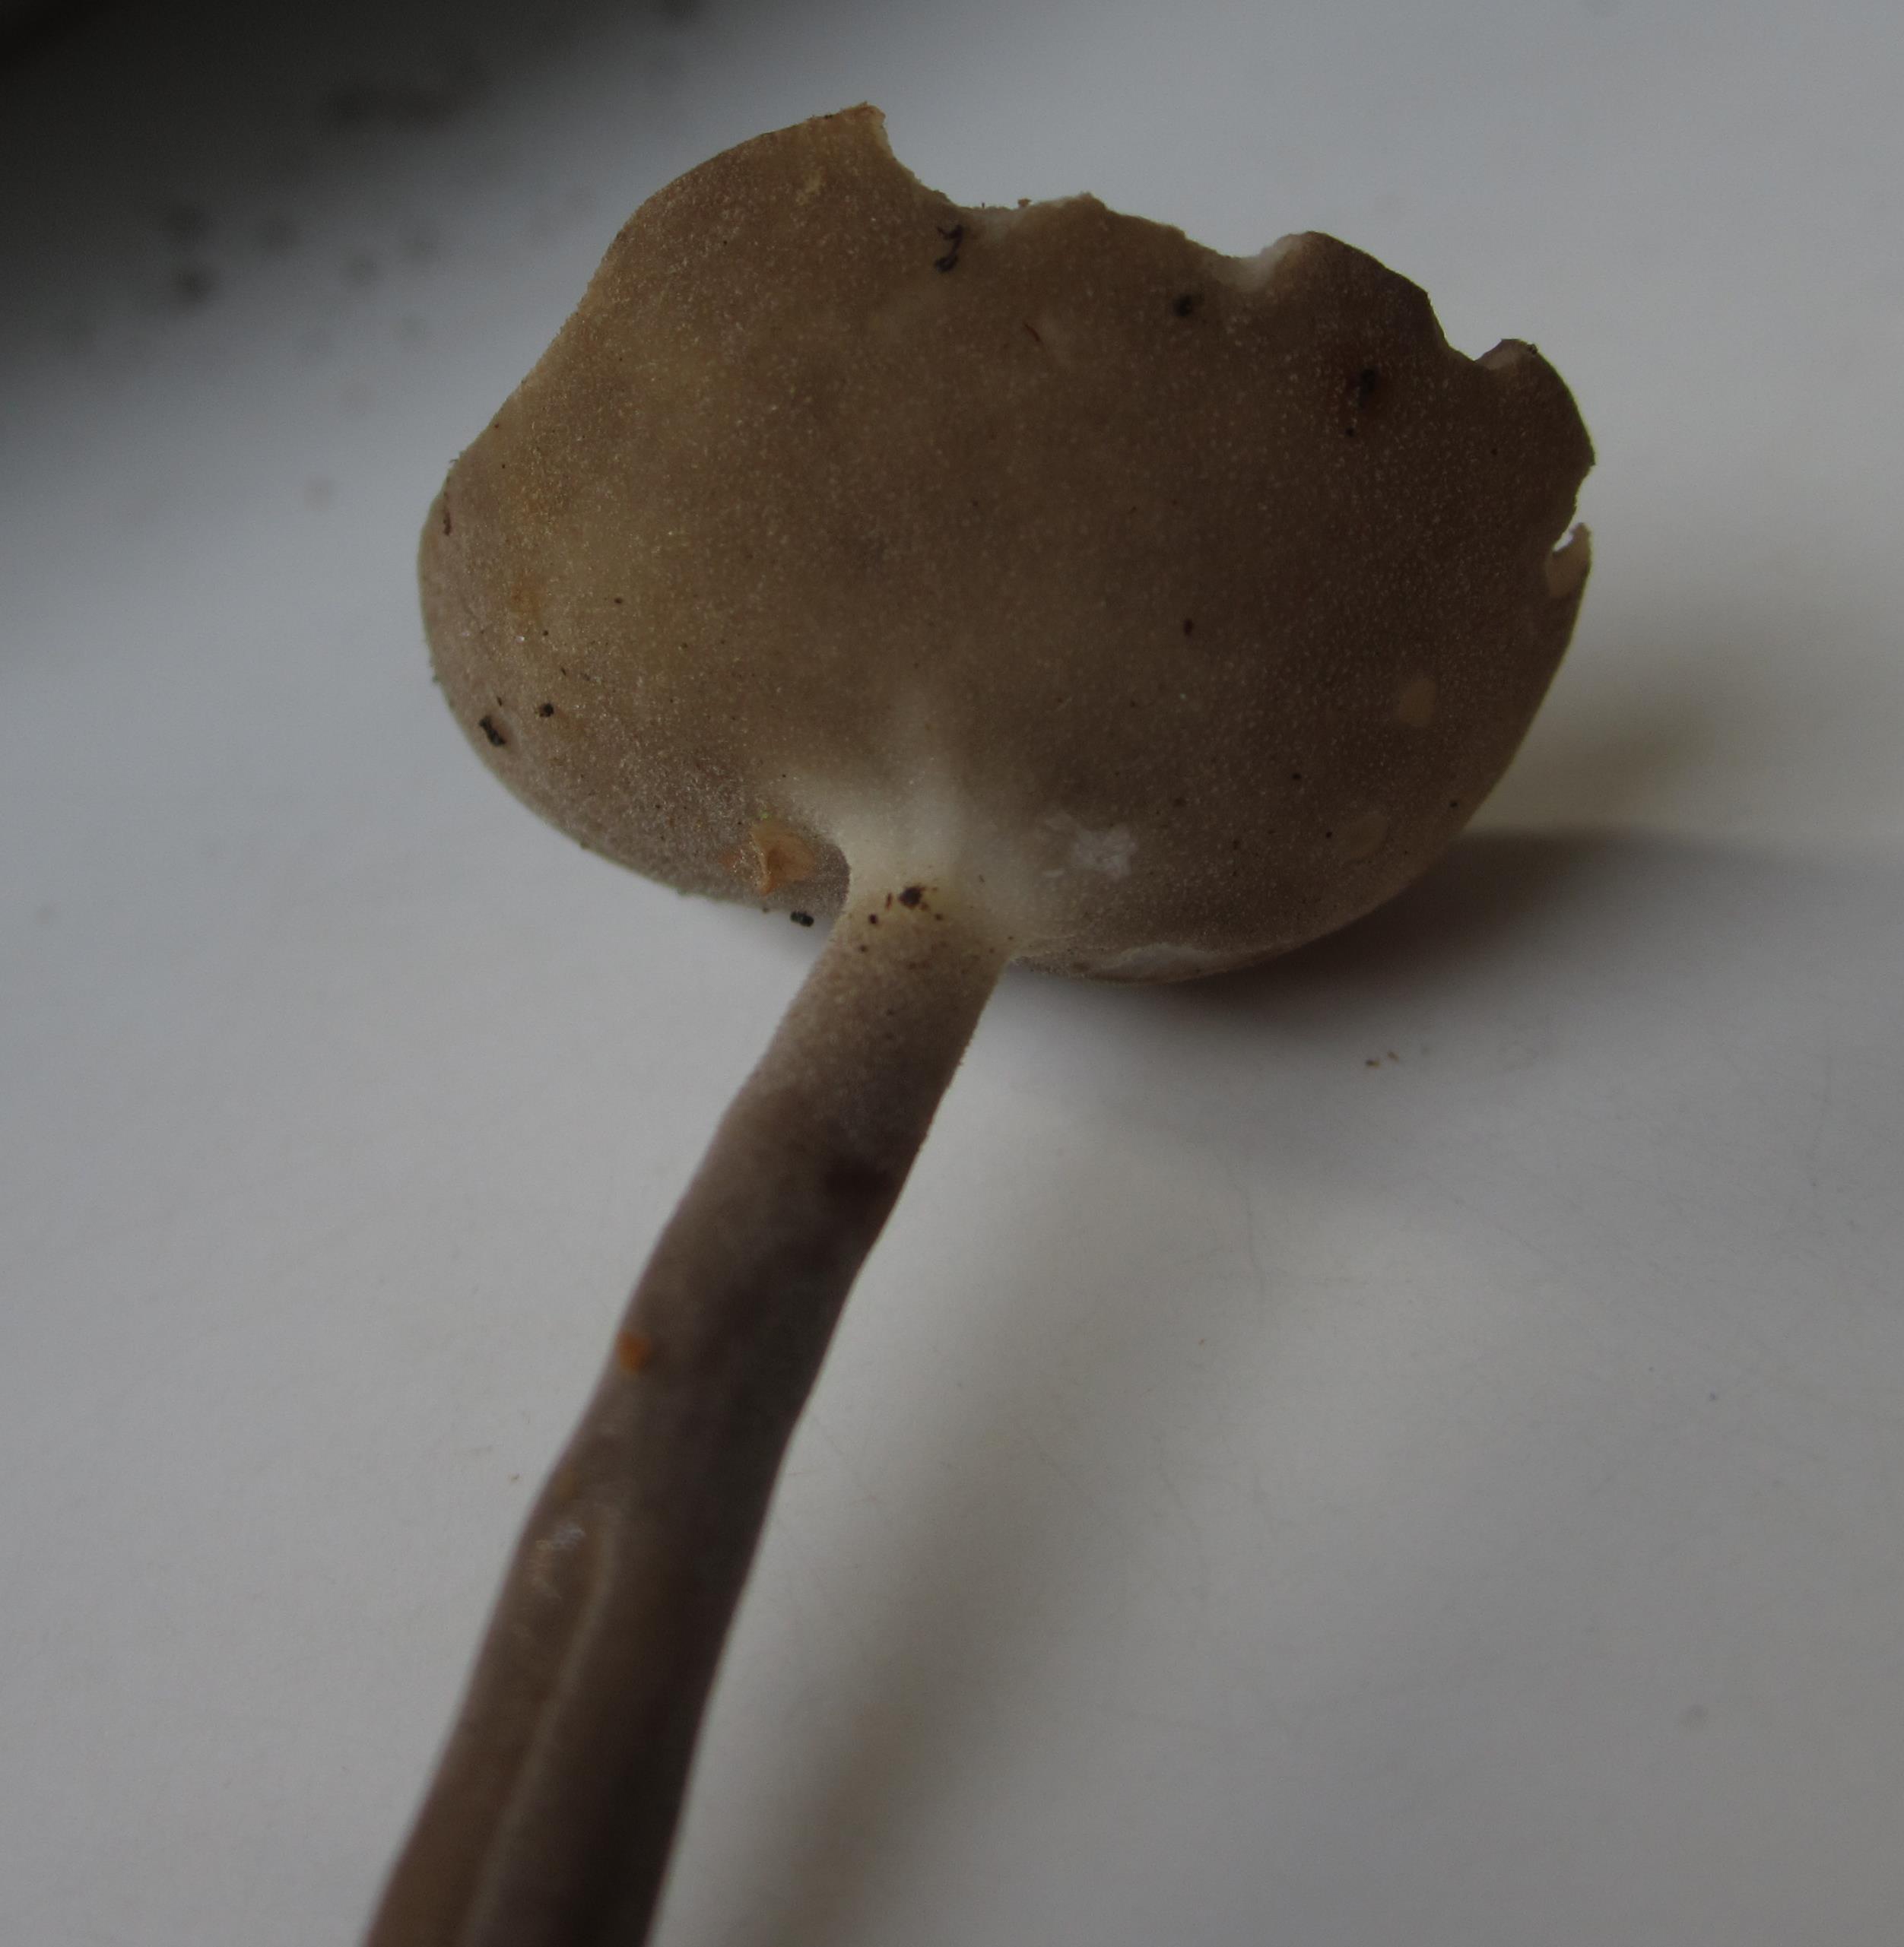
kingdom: Fungi
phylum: Ascomycota
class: Pezizomycetes
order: Pezizales
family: Helvellaceae
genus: Helvella
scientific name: Helvella fibrosa
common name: dunstokket foldhat
